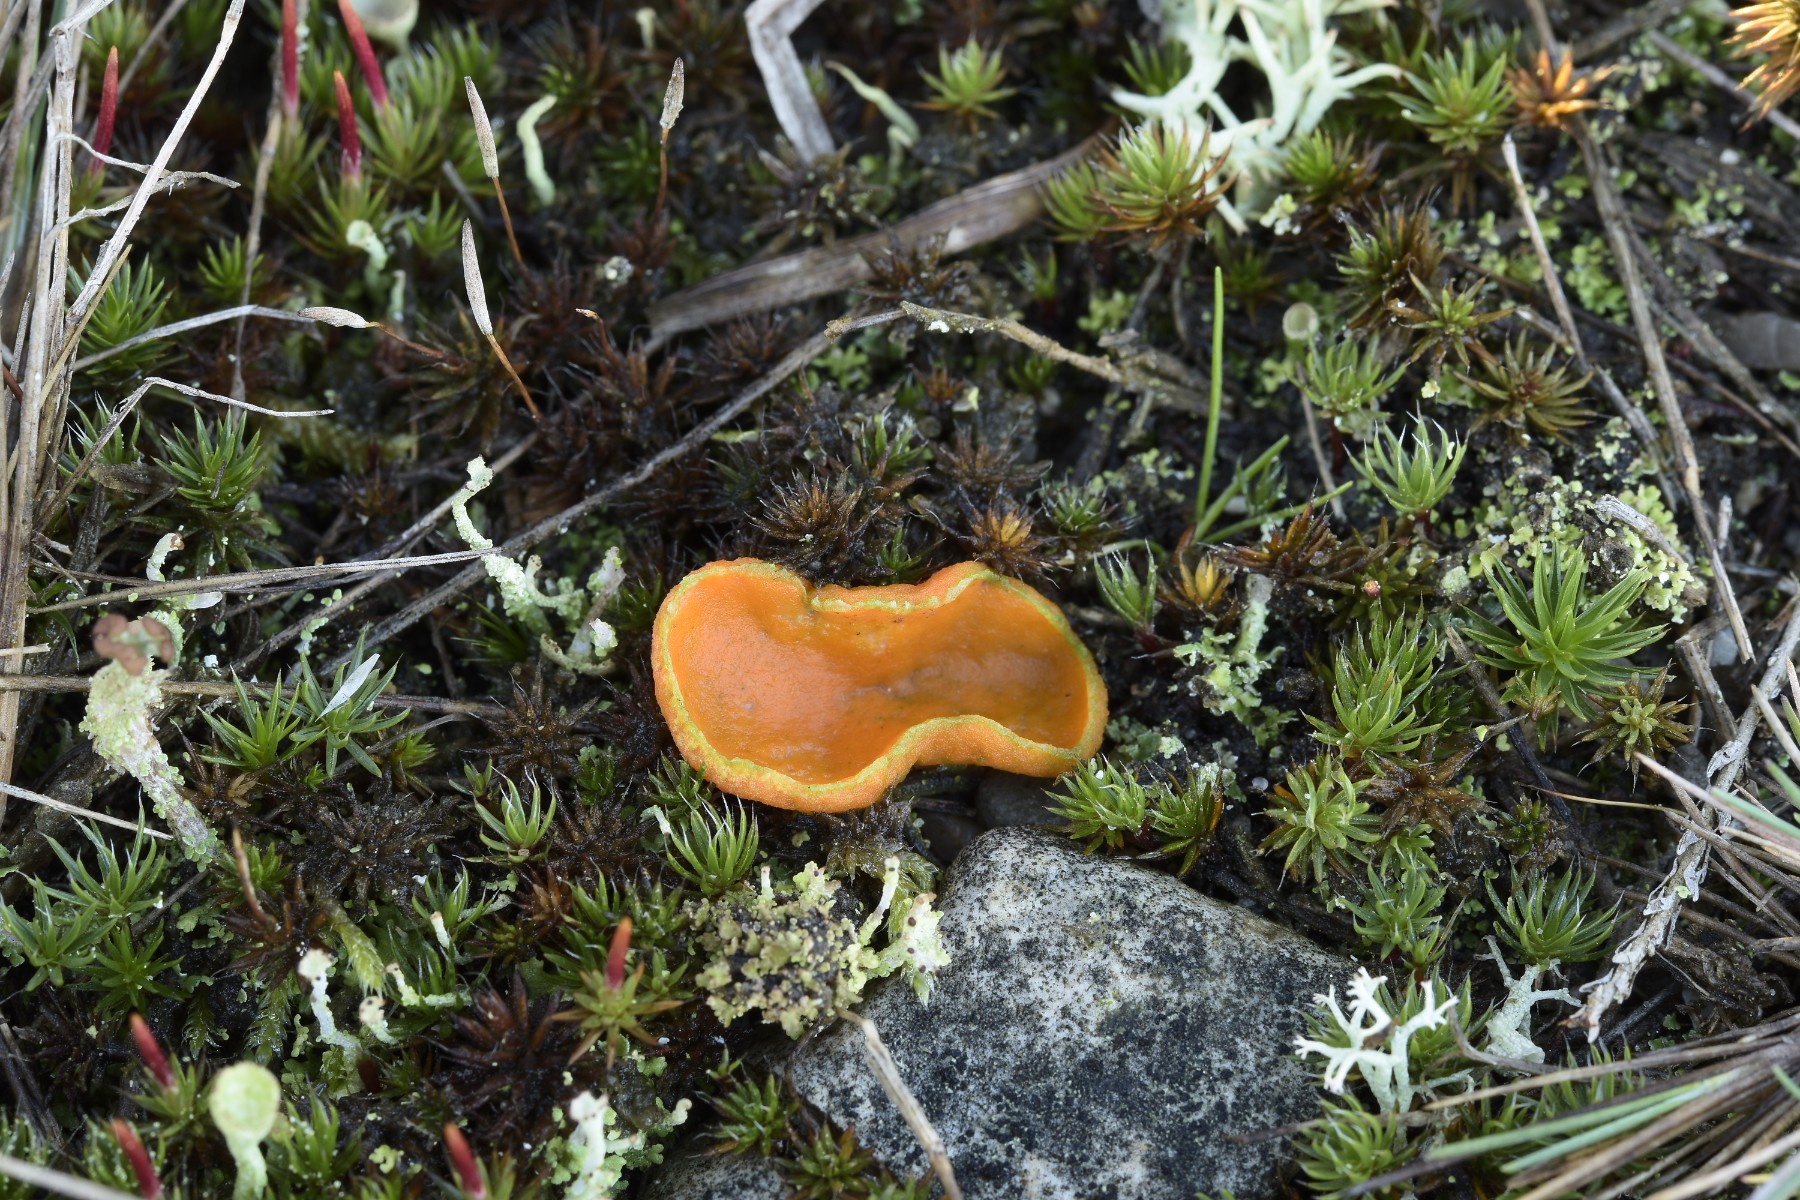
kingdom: Fungi
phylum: Ascomycota
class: Pezizomycetes
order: Pezizales
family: Pyronemataceae
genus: Neottiella
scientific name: Neottiella vivida
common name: sand-mosbæger
